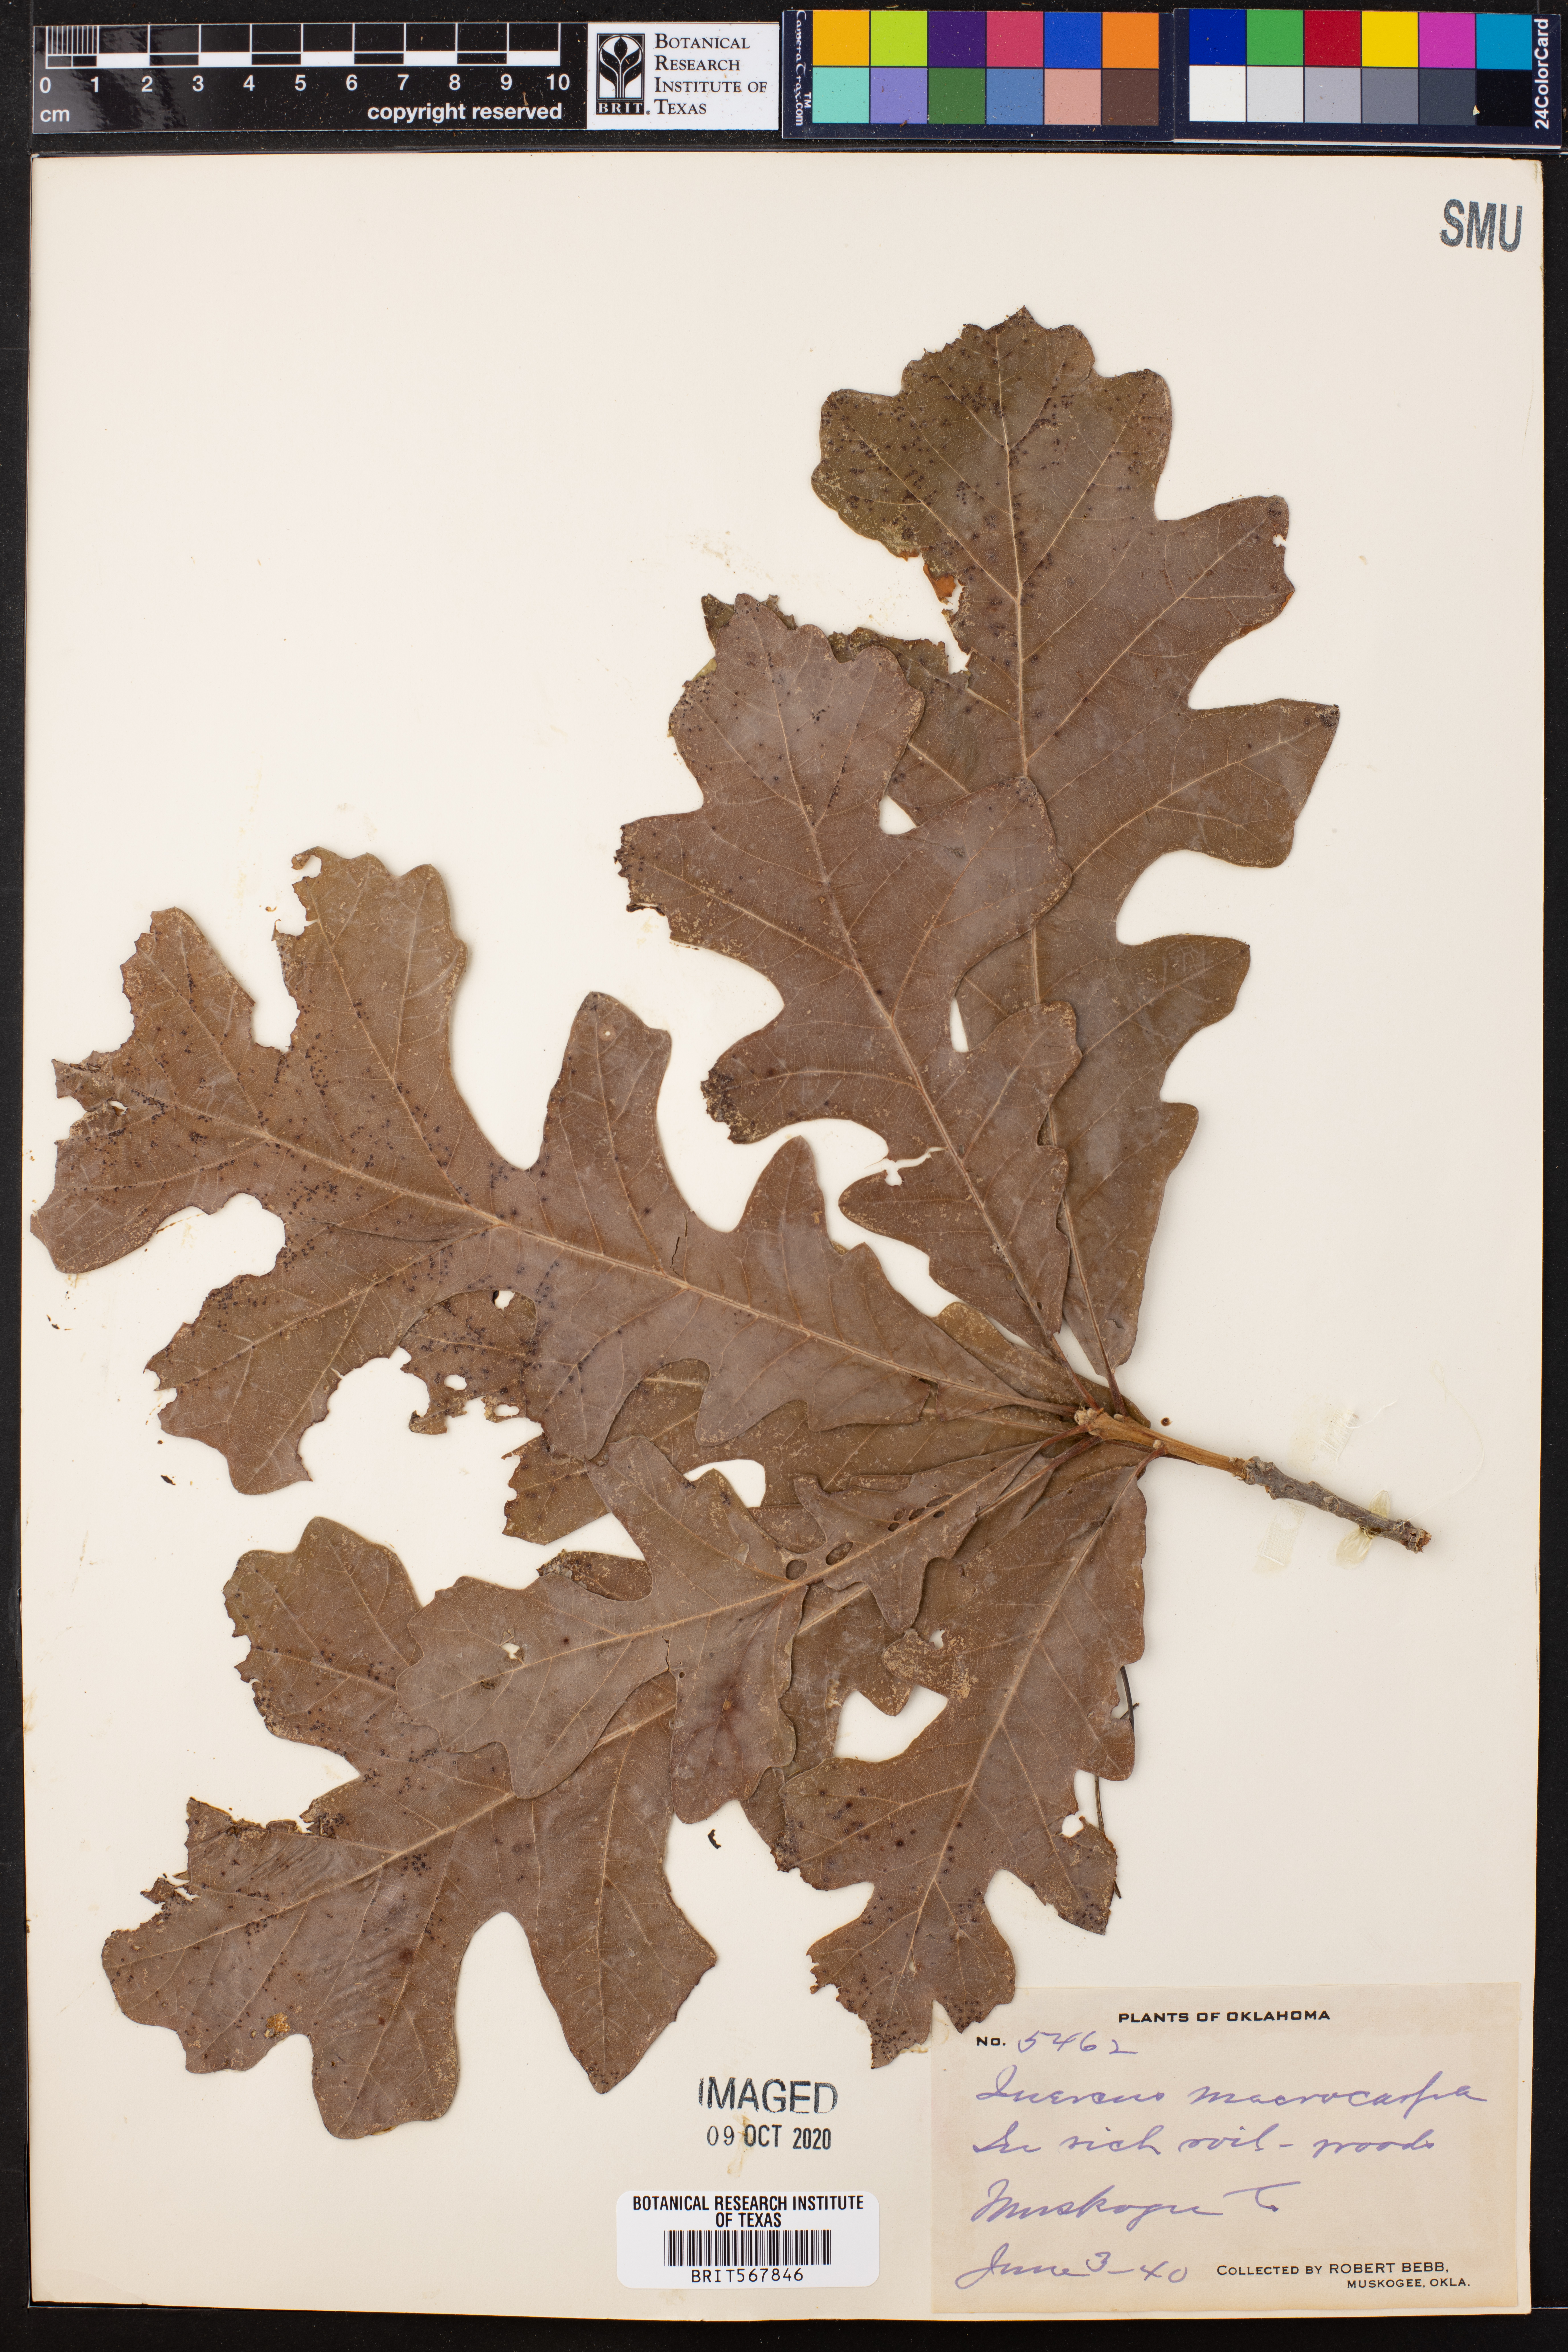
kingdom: Plantae
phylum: Tracheophyta
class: Magnoliopsida
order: Fagales
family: Fagaceae
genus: Quercus
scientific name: Quercus macrocarpa
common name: Bur oak
